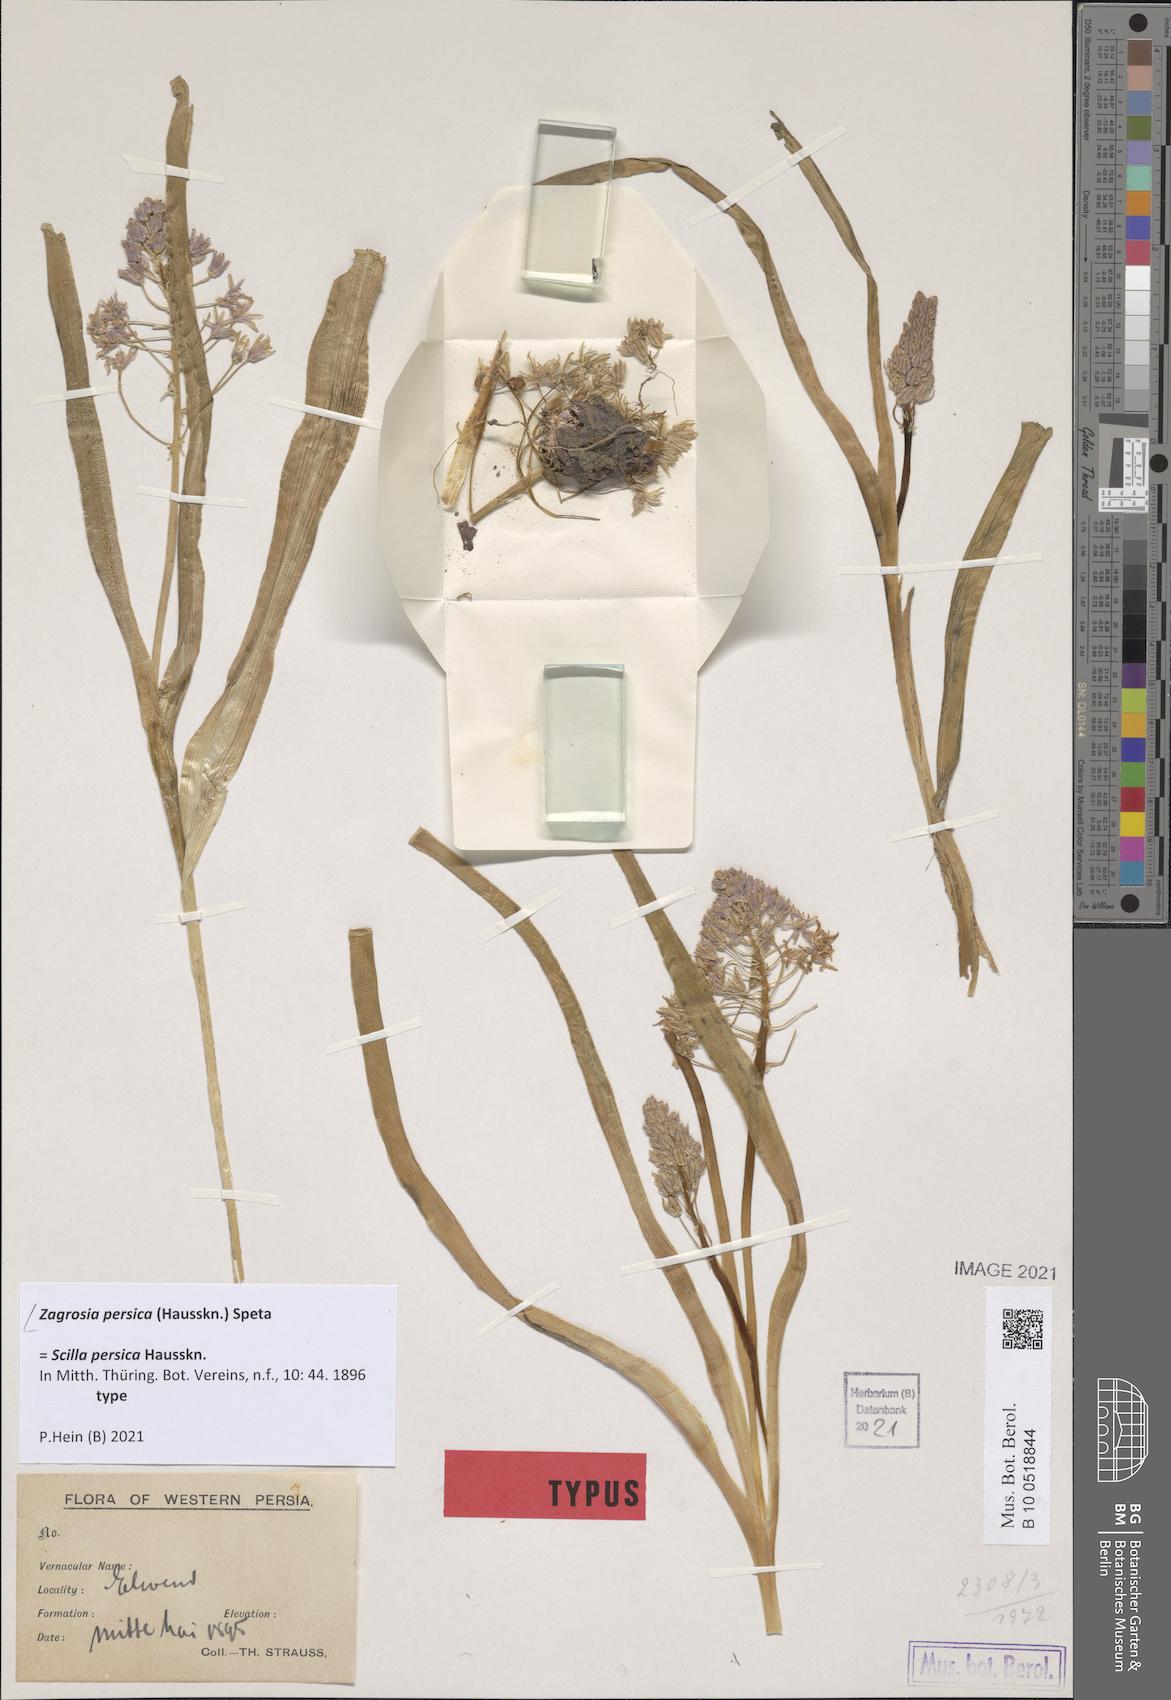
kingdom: Plantae
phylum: Tracheophyta
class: Liliopsida
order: Asparagales
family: Asparagaceae
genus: Zagrosia
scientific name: Zagrosia persica
